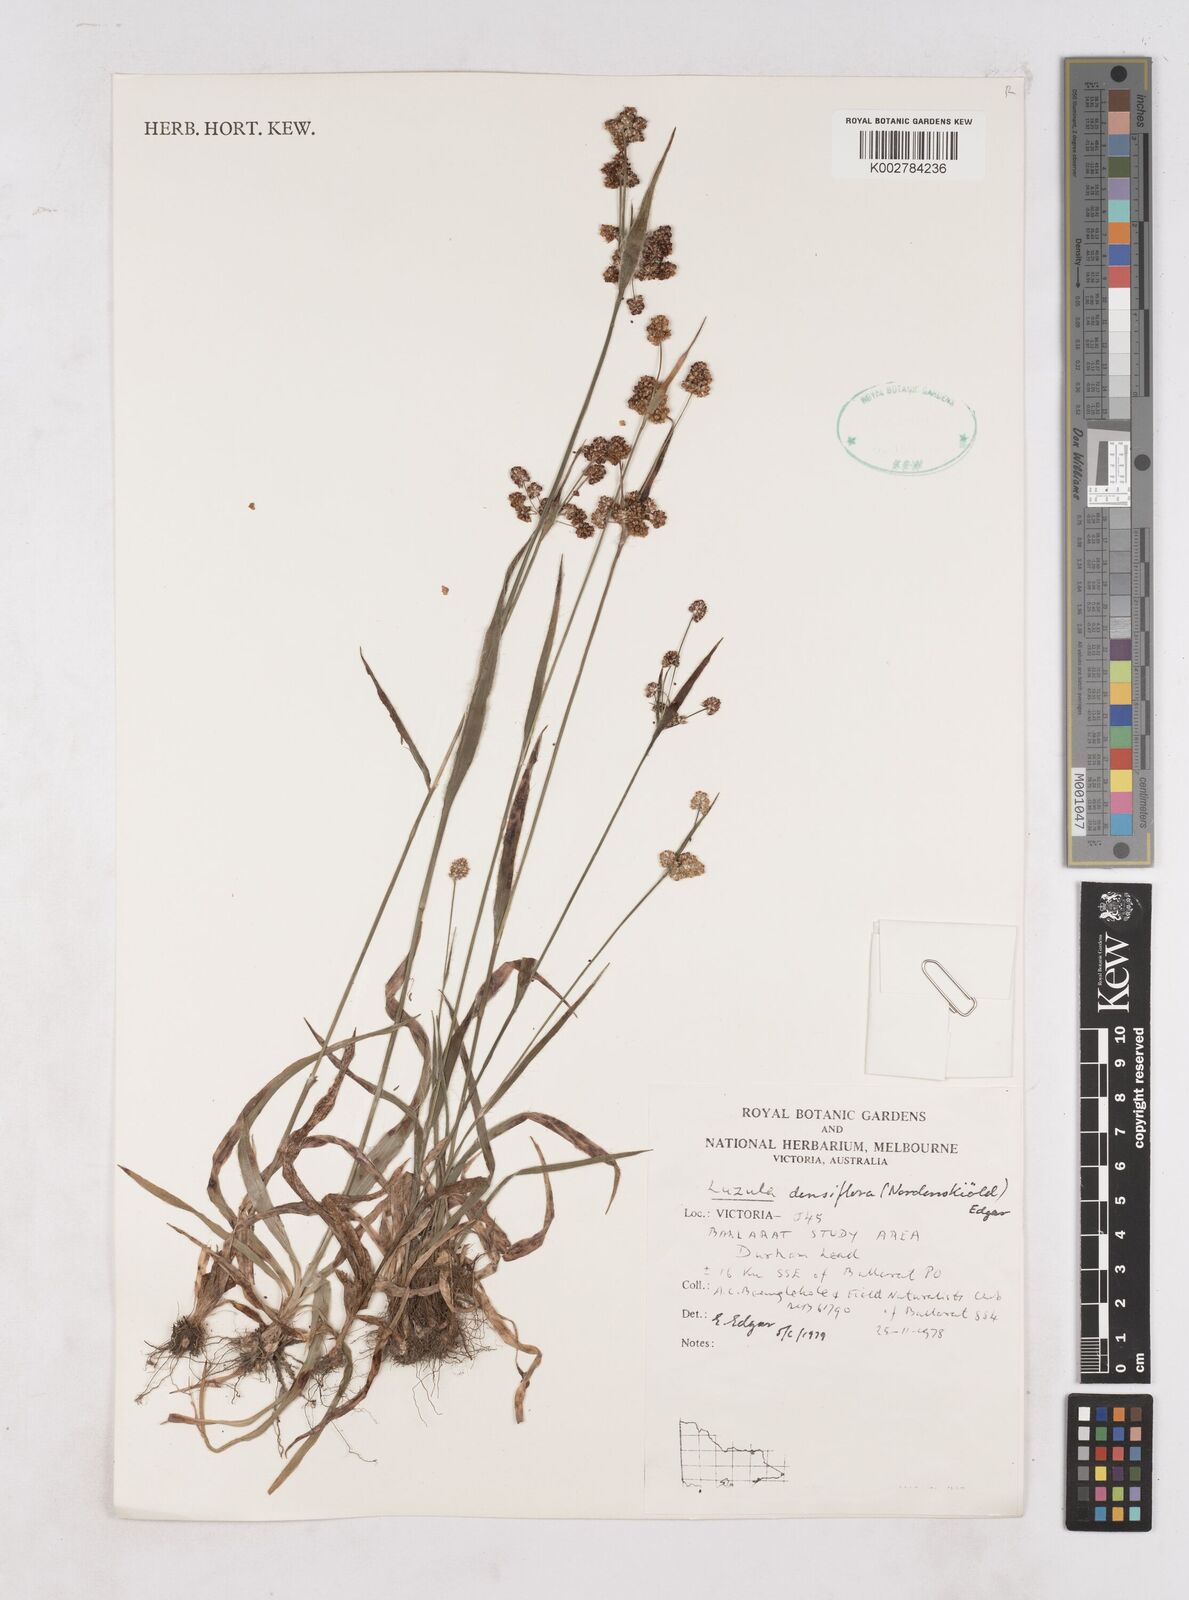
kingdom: Plantae
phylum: Tracheophyta
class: Liliopsida
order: Poales
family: Juncaceae
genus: Luzula
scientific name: Luzula densiflora
